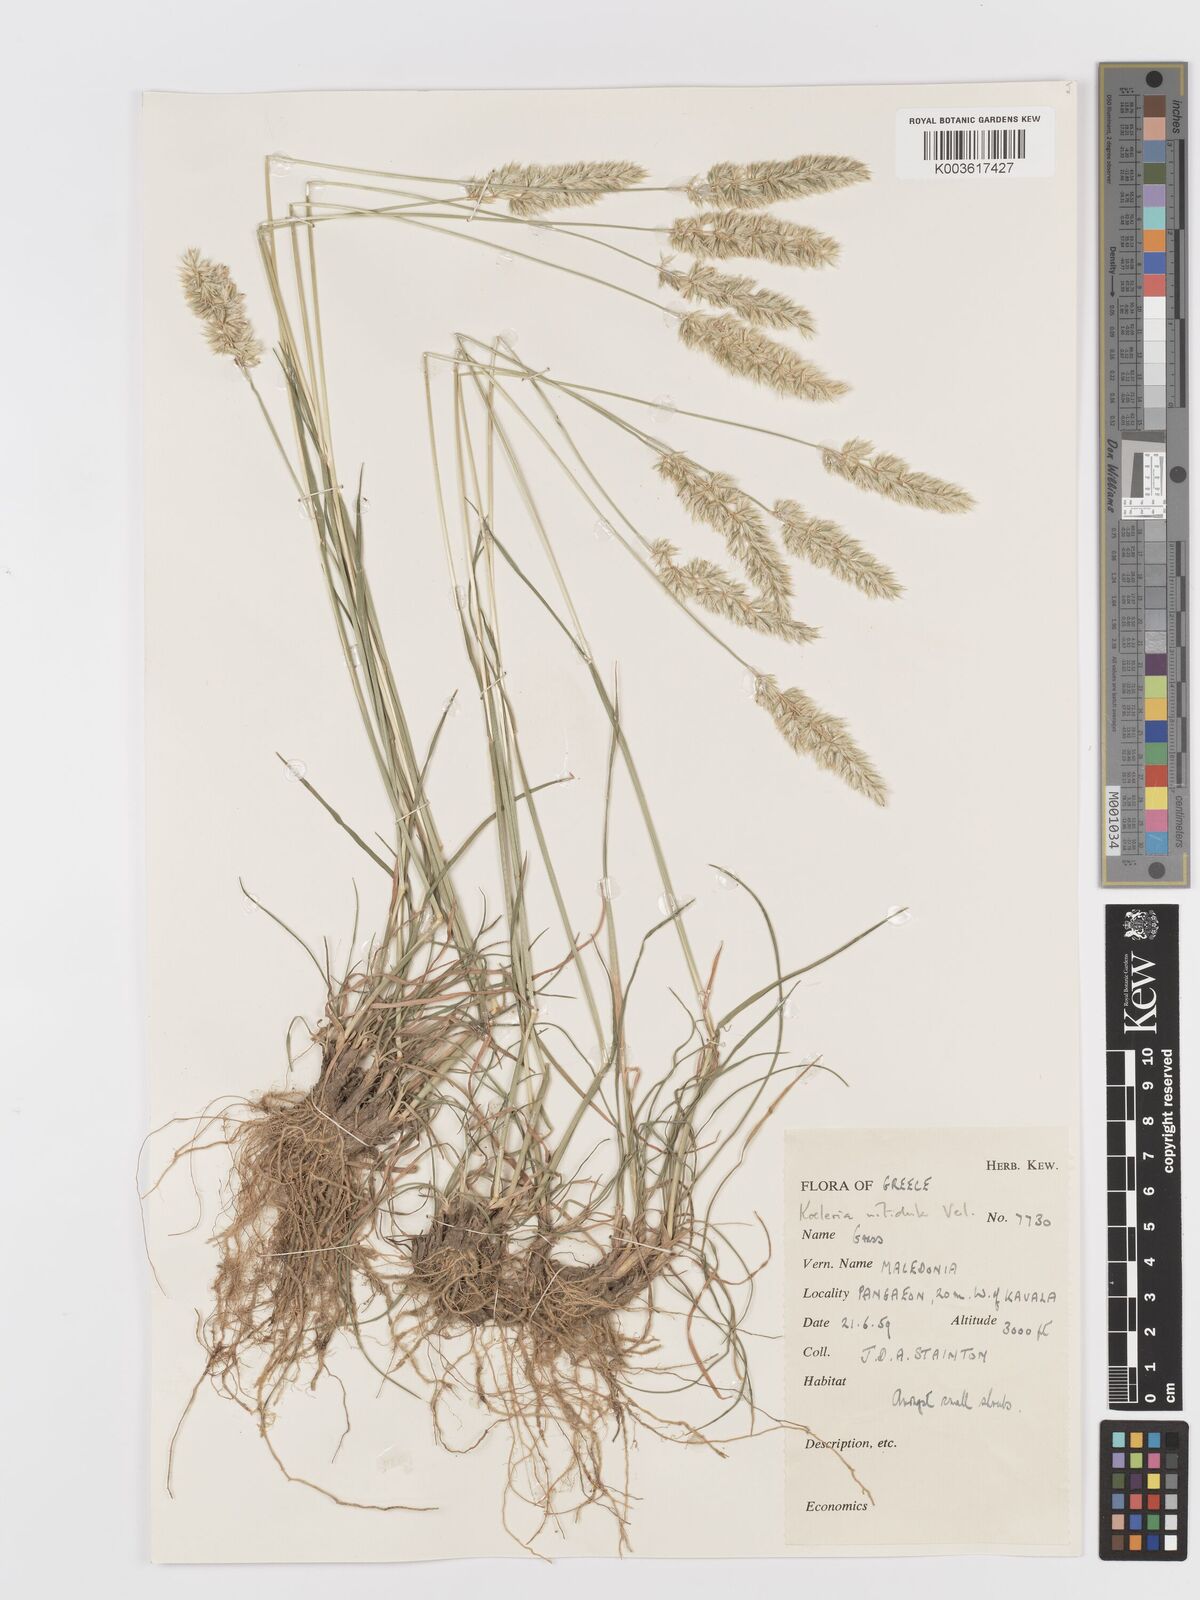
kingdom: Plantae
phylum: Tracheophyta
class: Liliopsida
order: Poales
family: Poaceae
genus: Koeleria
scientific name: Koeleria nitidula
